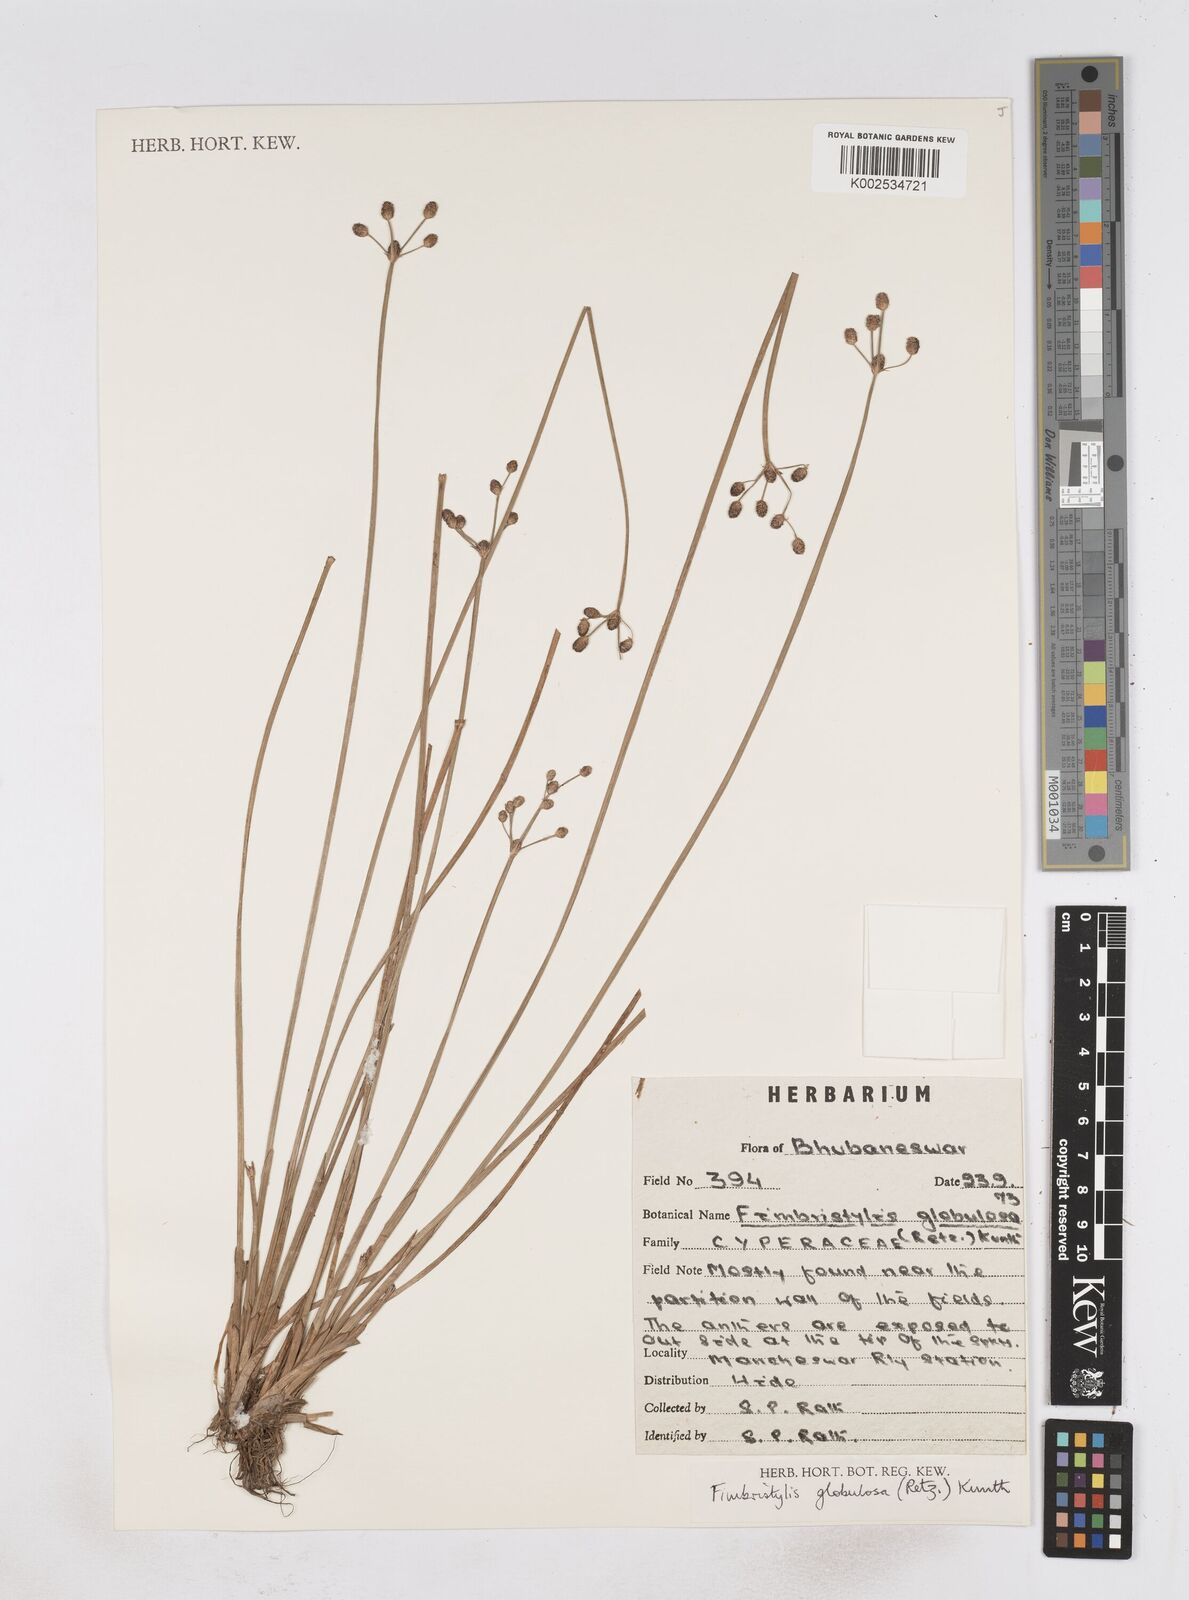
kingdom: Plantae
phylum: Tracheophyta
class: Liliopsida
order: Poales
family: Cyperaceae
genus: Fimbristylis
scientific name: Fimbristylis umbellaris
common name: Globular fimbristylis
